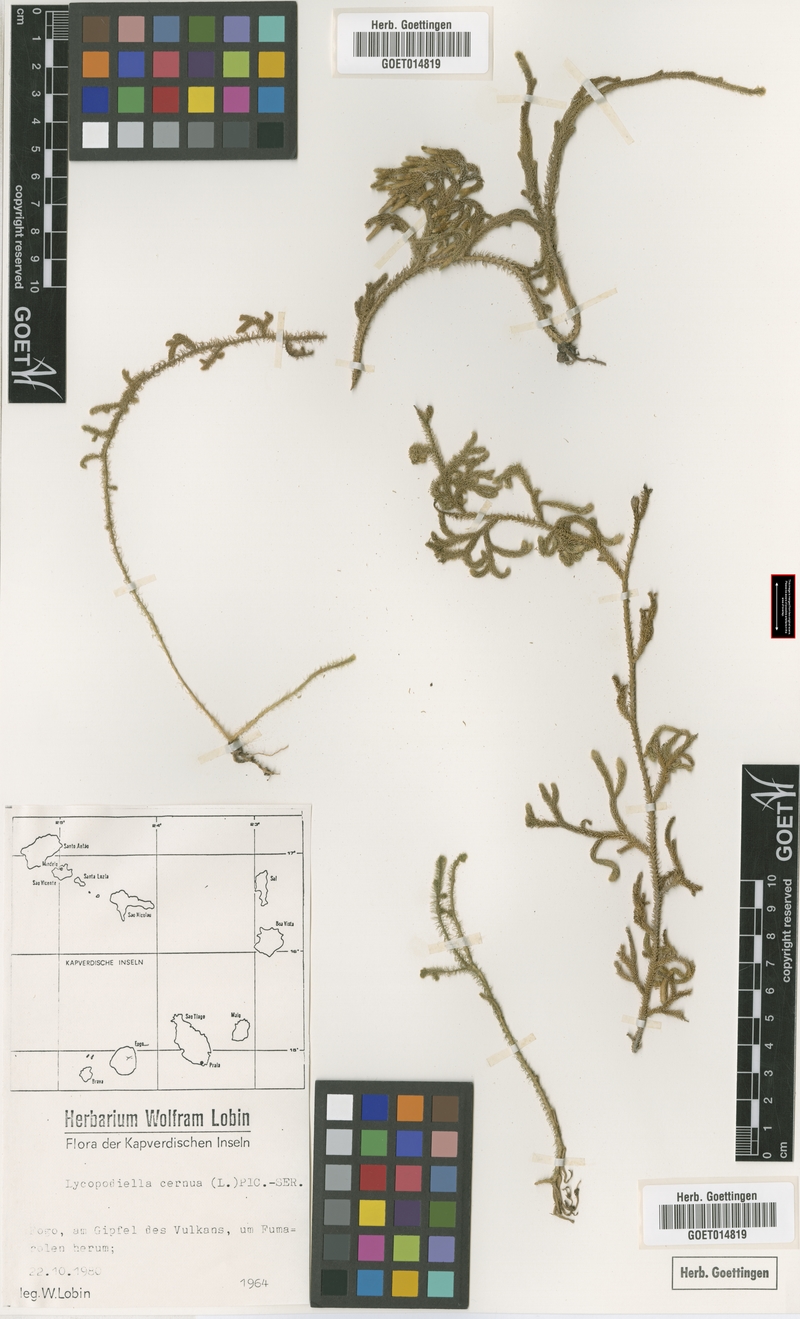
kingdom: Plantae
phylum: Tracheophyta
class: Lycopodiopsida
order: Lycopodiales
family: Lycopodiaceae
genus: Palhinhaea
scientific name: Palhinhaea cernua
